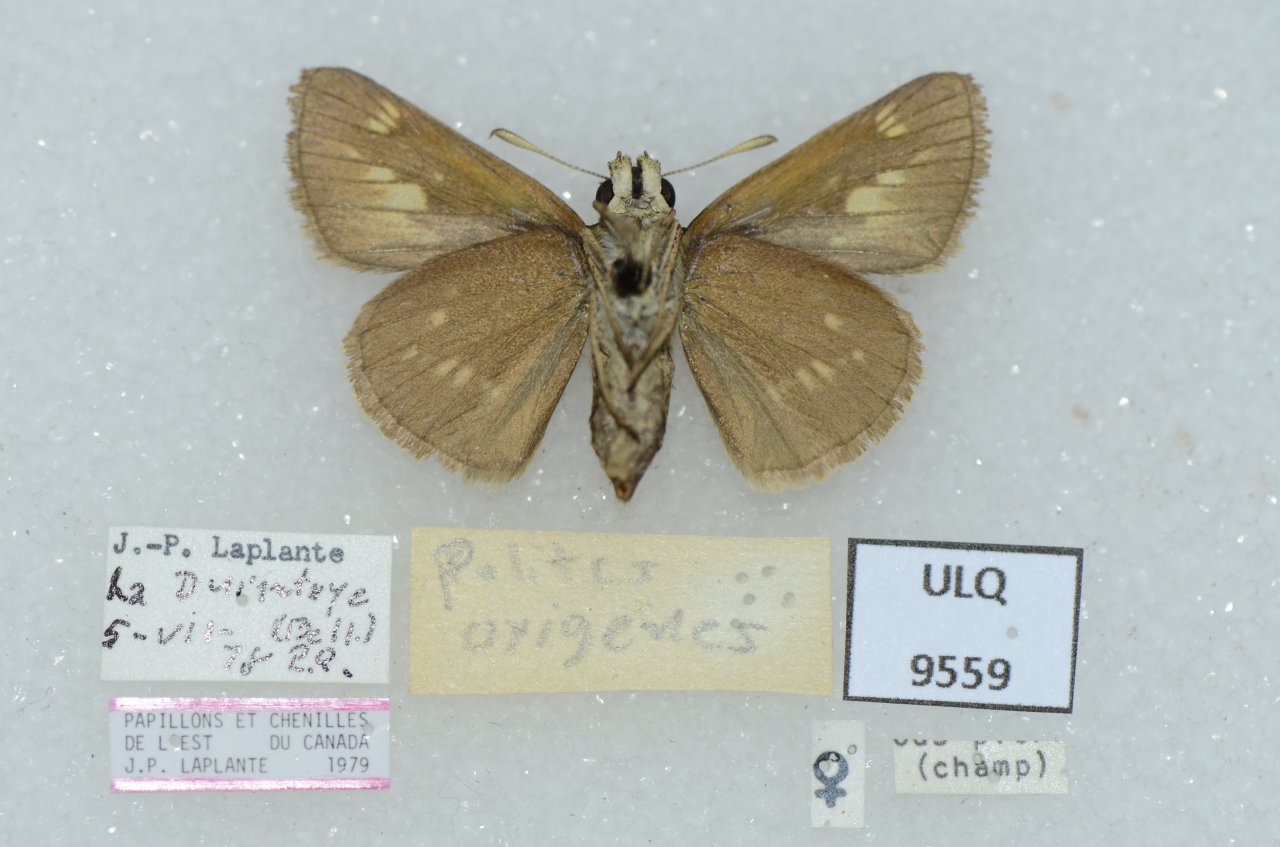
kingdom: Animalia
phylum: Arthropoda
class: Insecta
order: Lepidoptera
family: Hesperiidae
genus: Polites
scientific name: Polites
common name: Crossline Skipper
